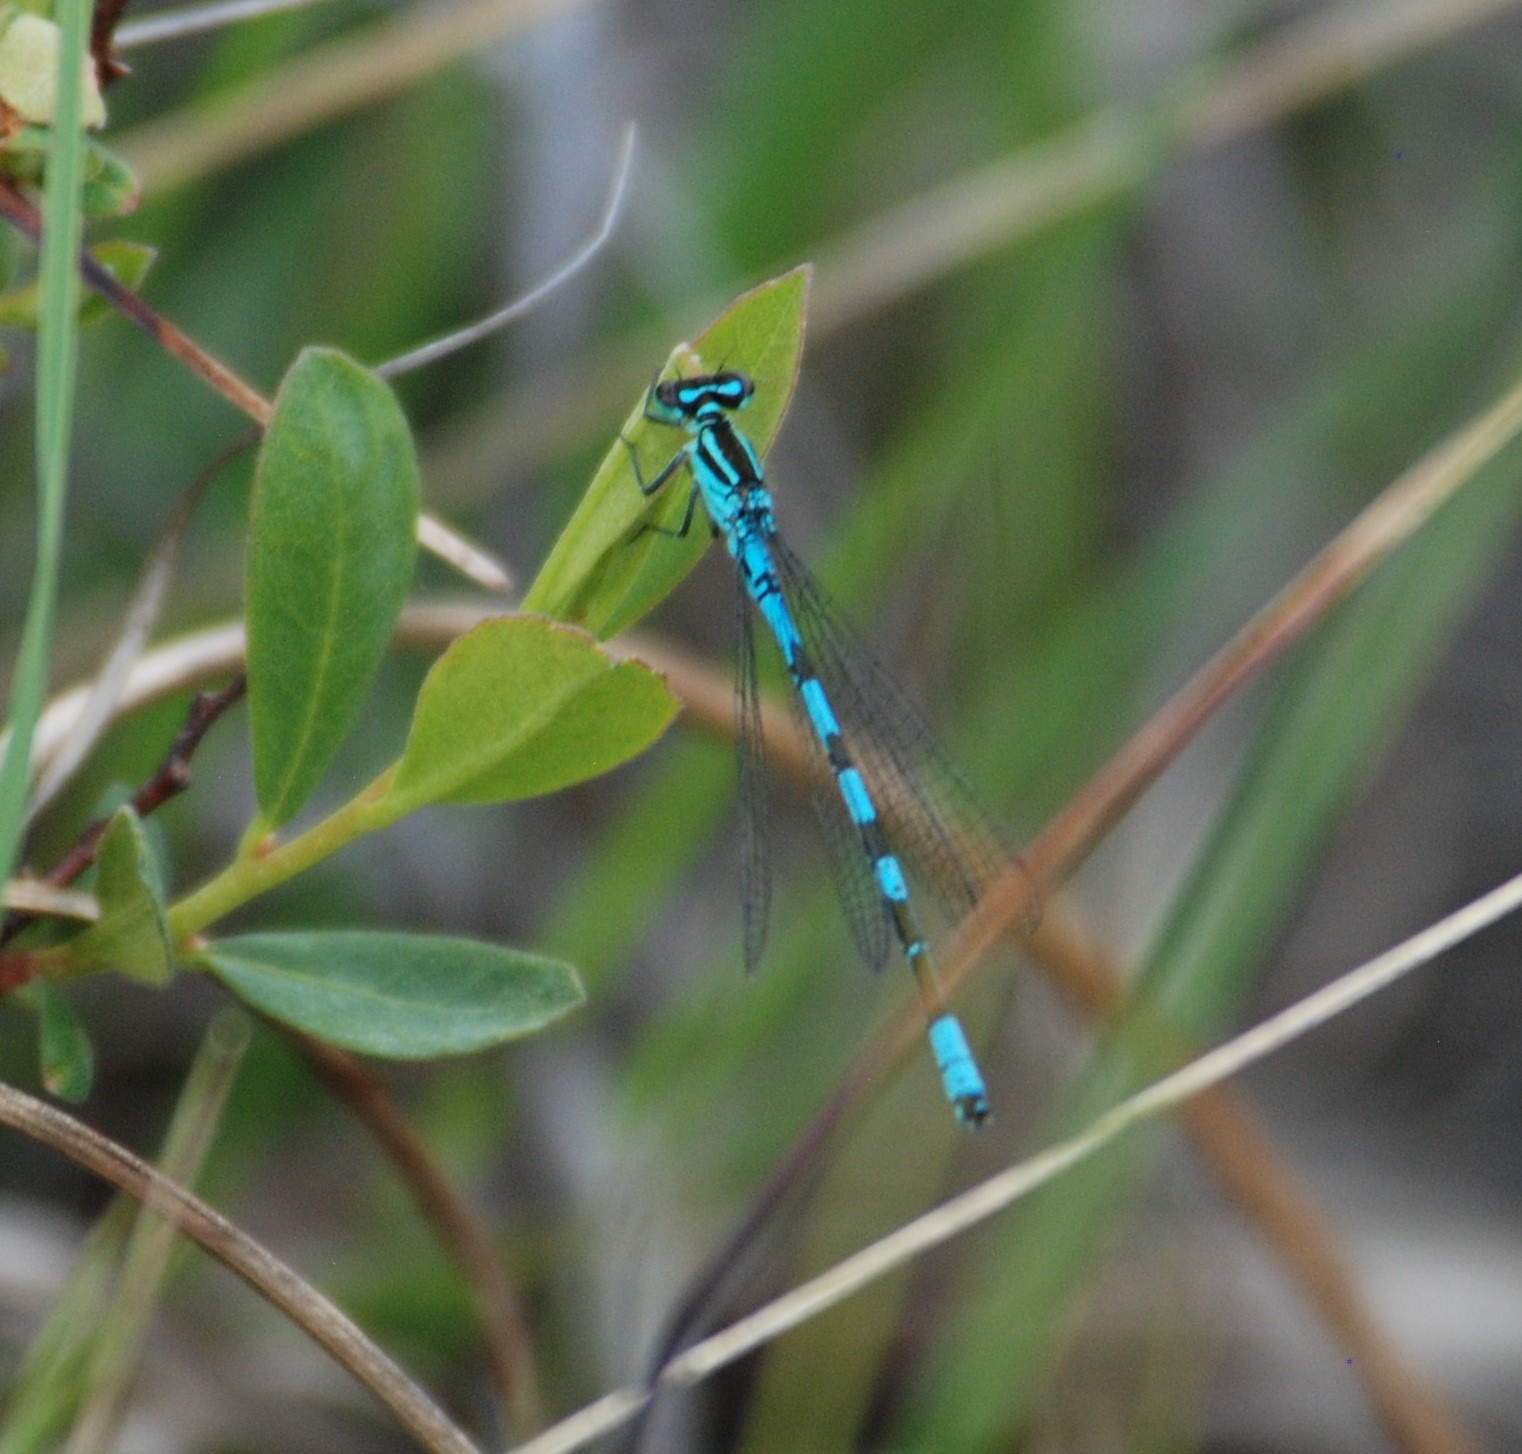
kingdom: Animalia
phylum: Arthropoda
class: Insecta
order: Odonata
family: Coenagrionidae
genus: Coenagrion
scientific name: Coenagrion hastulatum
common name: Spyd-vandnymfe
